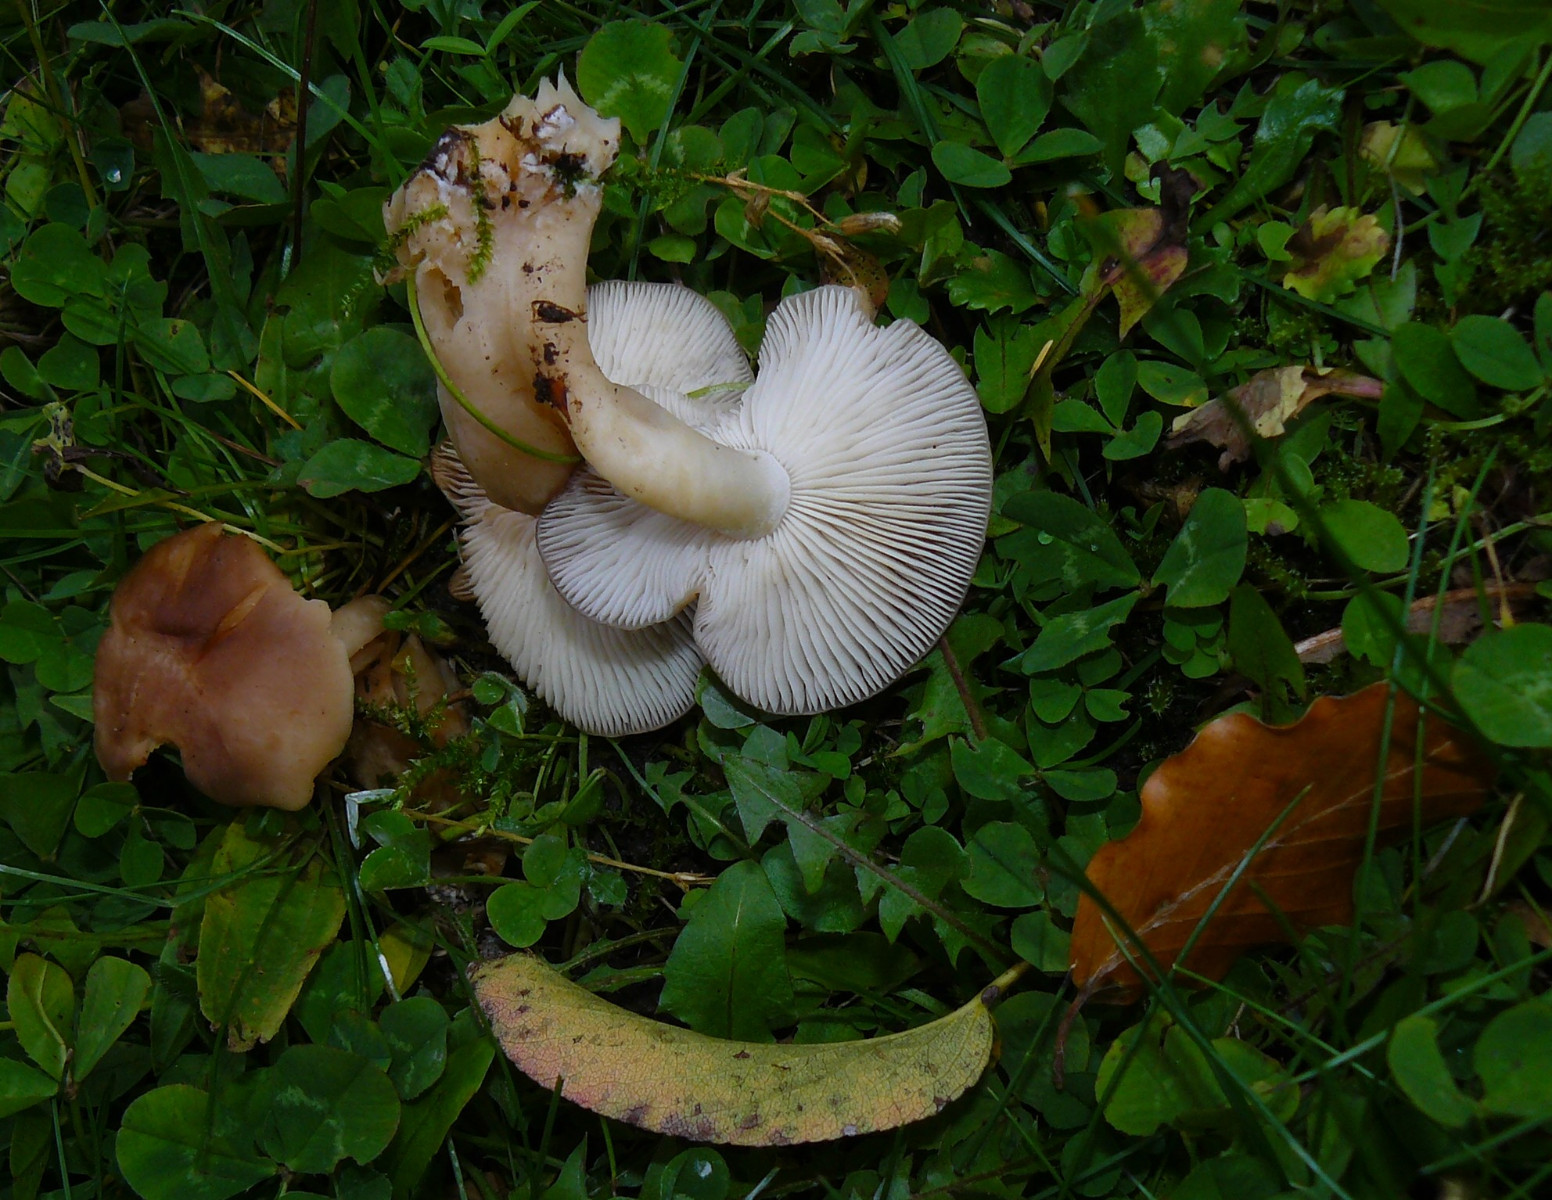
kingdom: Fungi
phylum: Basidiomycota
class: Agaricomycetes
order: Agaricales
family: Lyophyllaceae
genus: Lyophyllum
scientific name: Lyophyllum decastes
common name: røggrå gråblad
